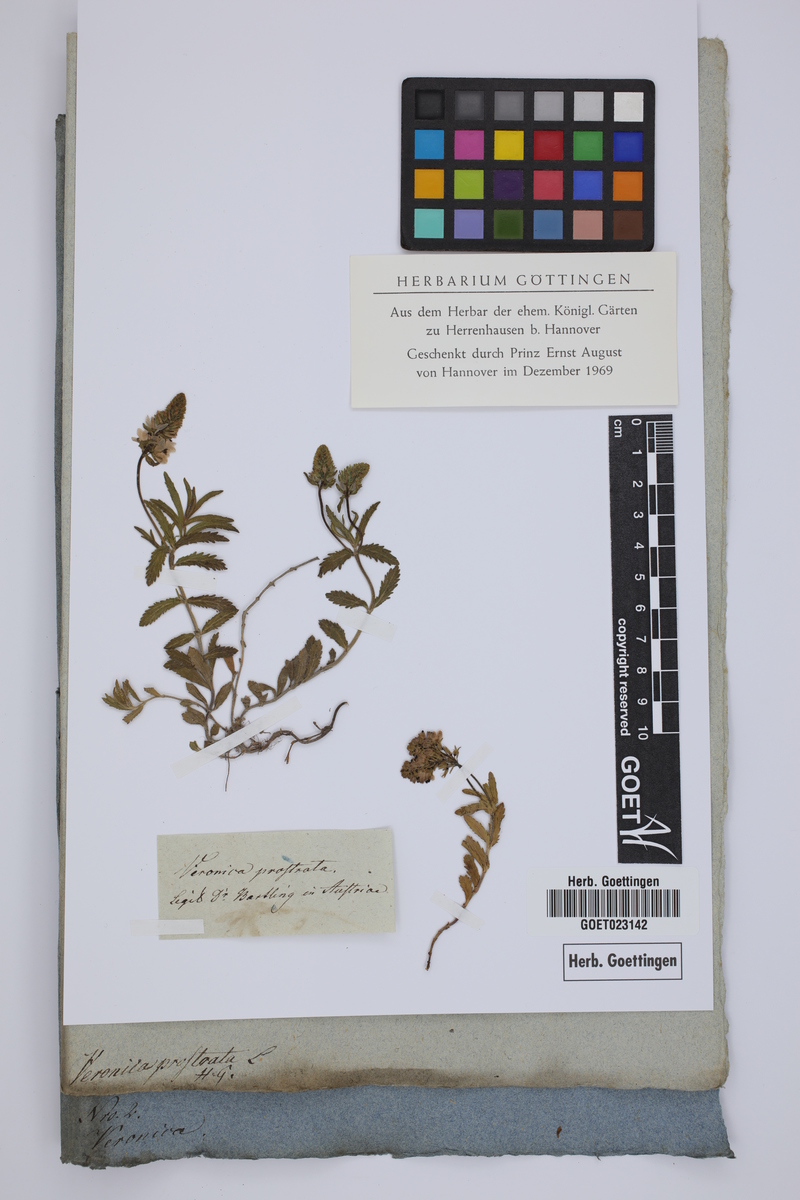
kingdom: Plantae
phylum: Tracheophyta
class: Magnoliopsida
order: Lamiales
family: Plantaginaceae
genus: Veronica
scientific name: Veronica prostrata
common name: Prostrate speedwell
